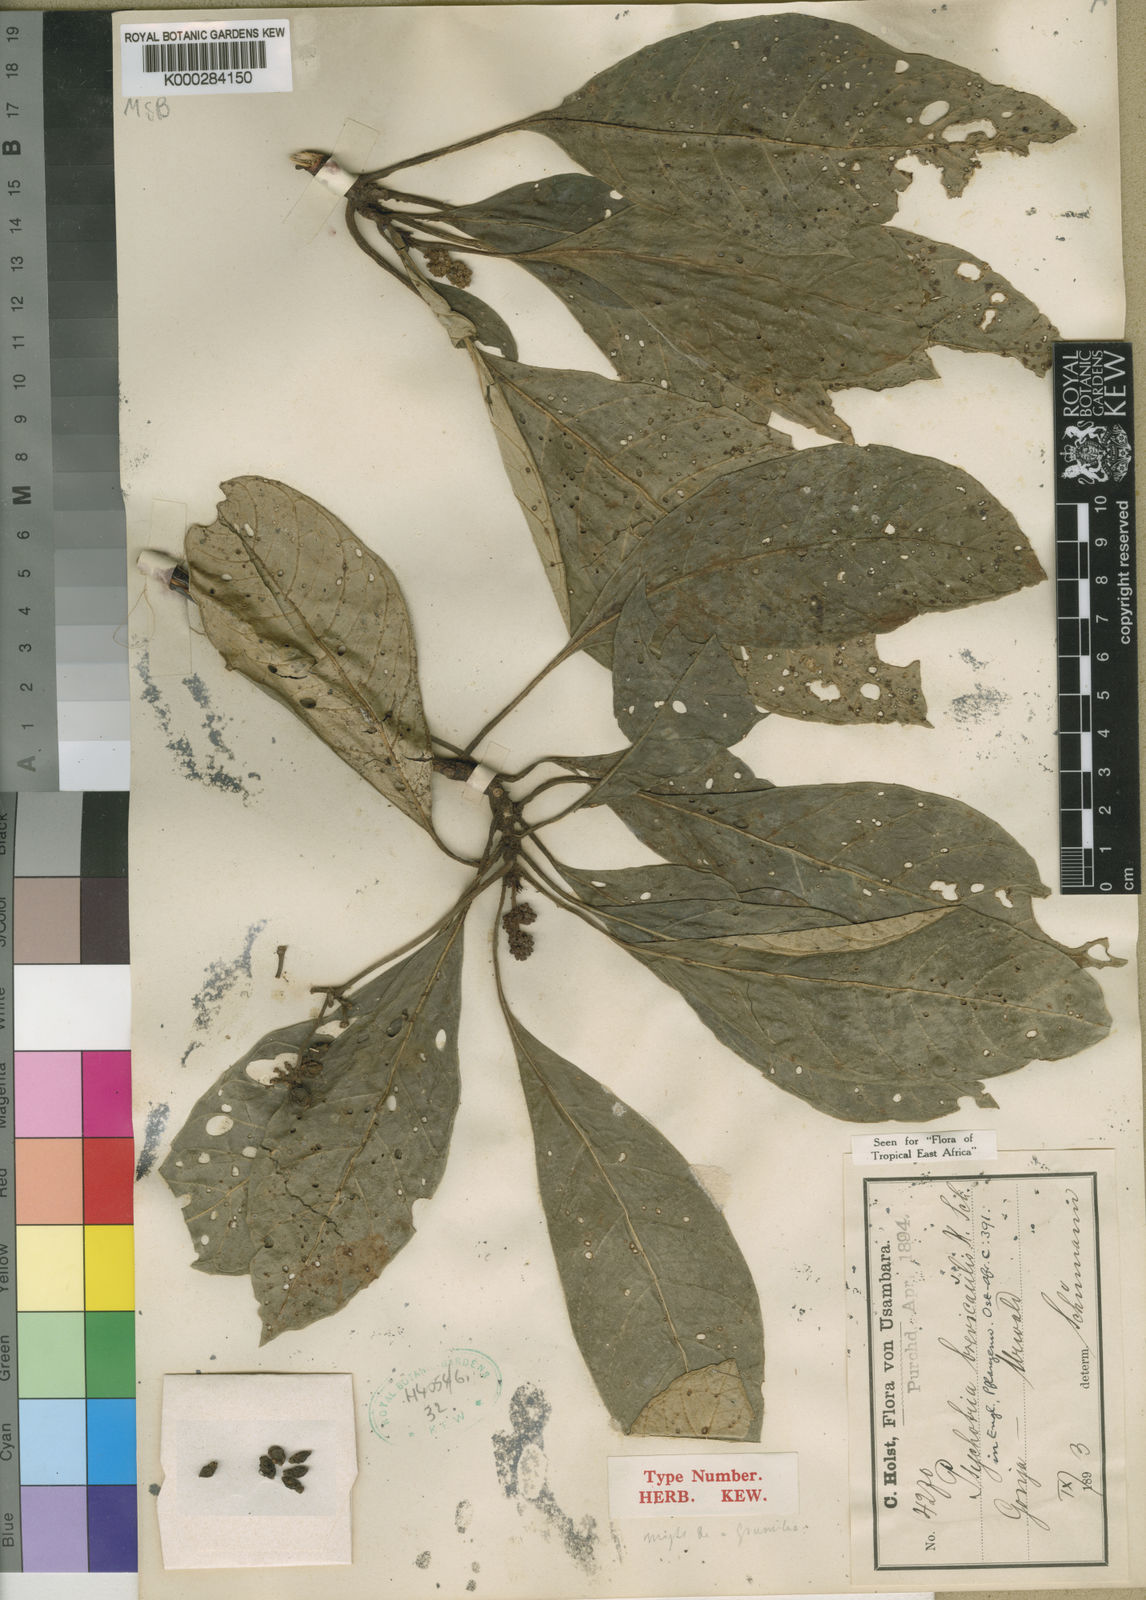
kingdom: Plantae
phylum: Tracheophyta
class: Magnoliopsida
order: Gentianales
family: Rubiaceae
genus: Psychotria
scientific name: Psychotria brevicaulis
